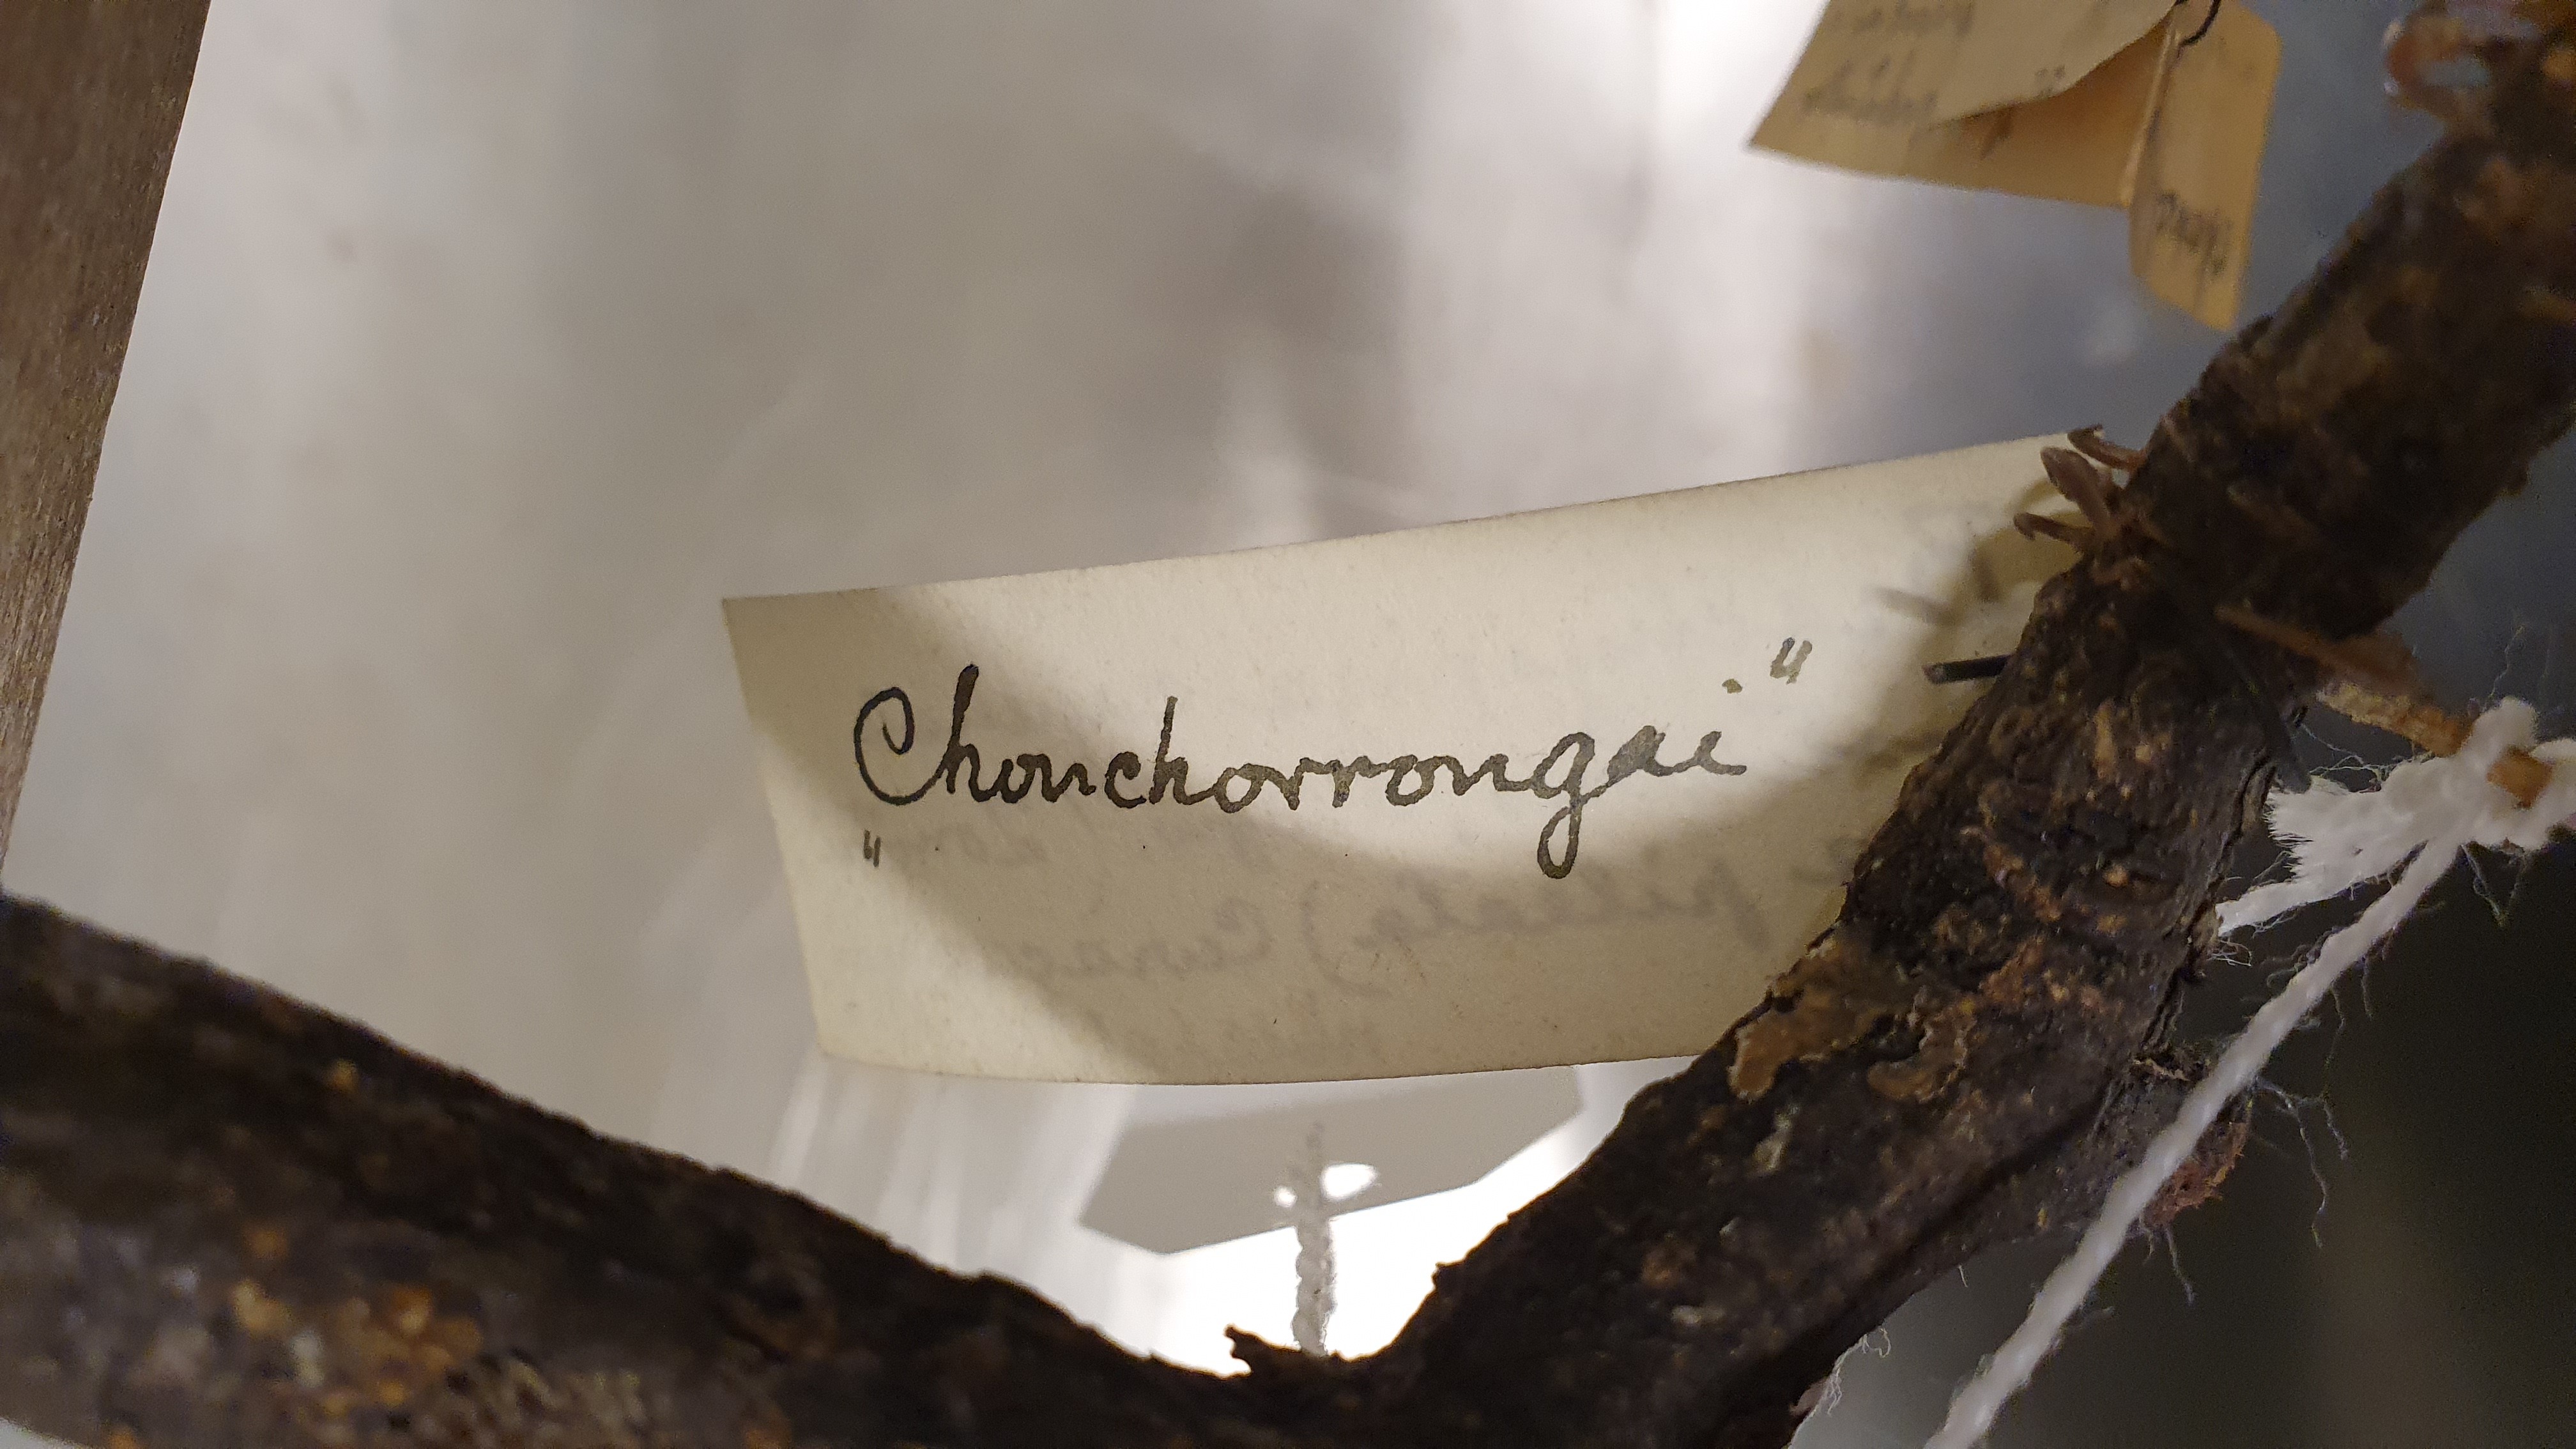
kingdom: Animalia
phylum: Chordata
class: Aves
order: Passeriformes
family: Passerellidae
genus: Zonotrichia
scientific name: Zonotrichia capensis
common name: Rufous-collared sparrow
